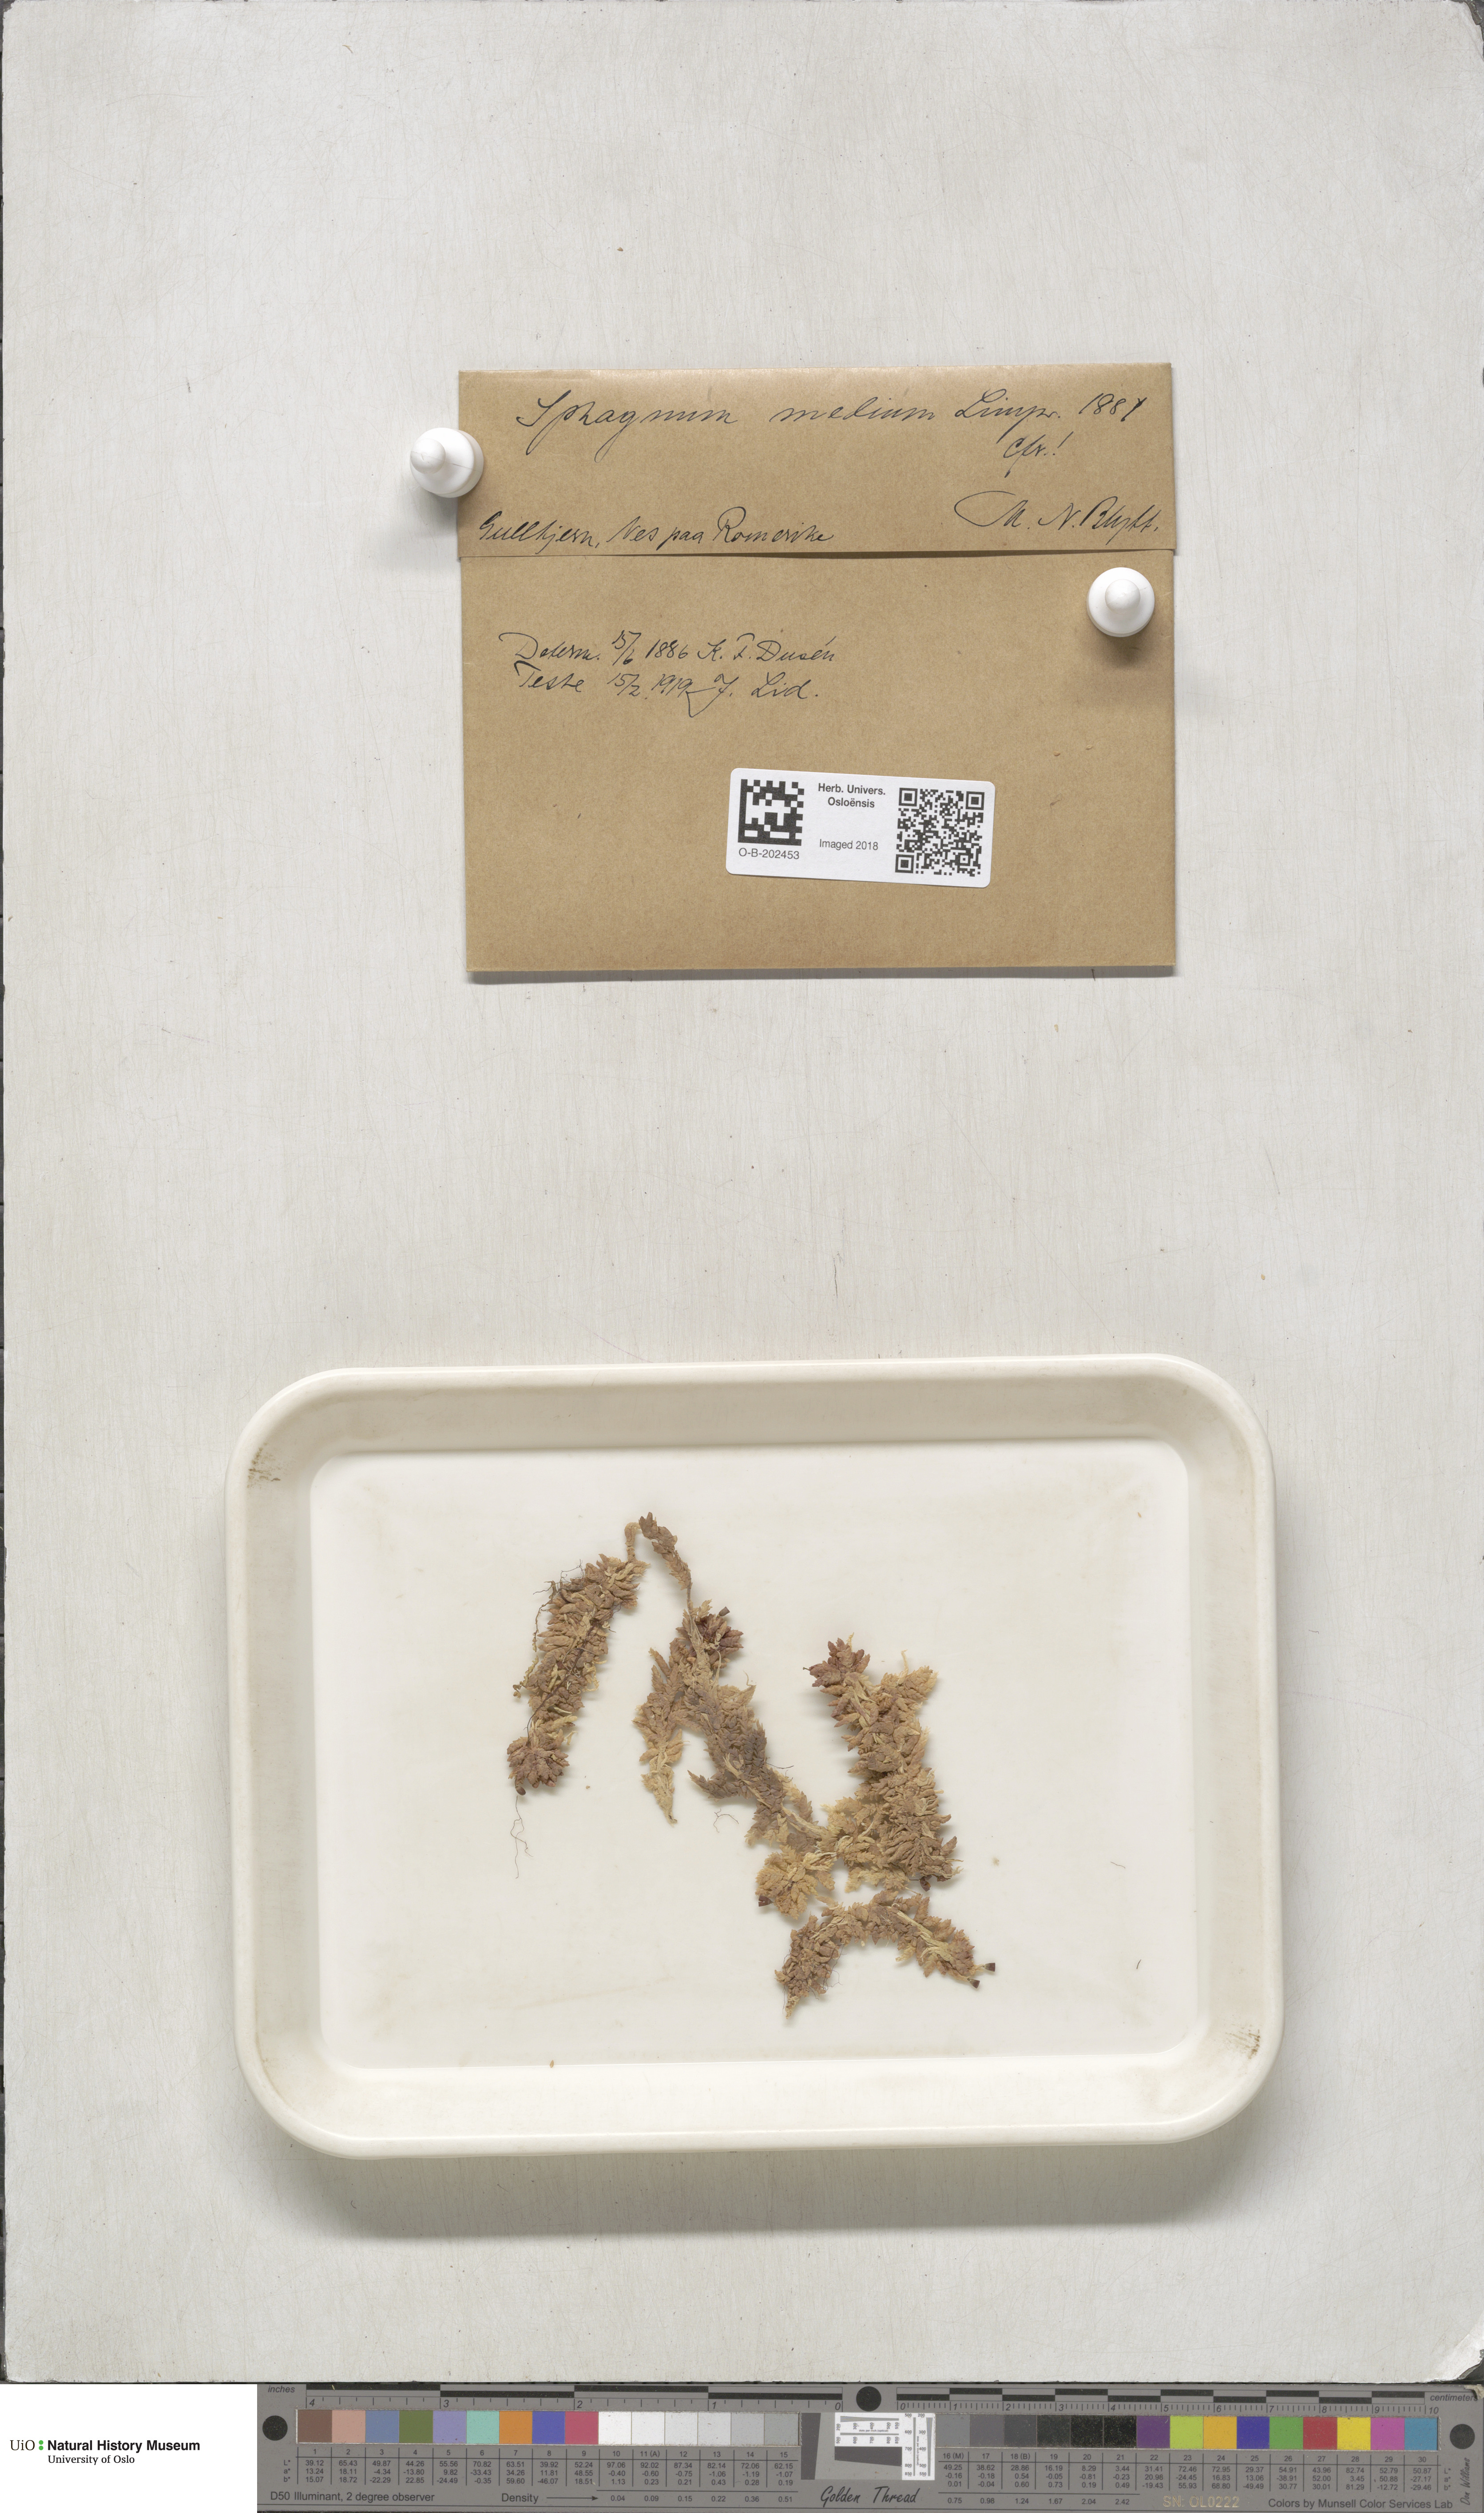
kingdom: Plantae
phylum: Bryophyta
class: Sphagnopsida
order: Sphagnales
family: Sphagnaceae
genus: Sphagnum
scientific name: Sphagnum magellanicum
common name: Magellan's peat moss
